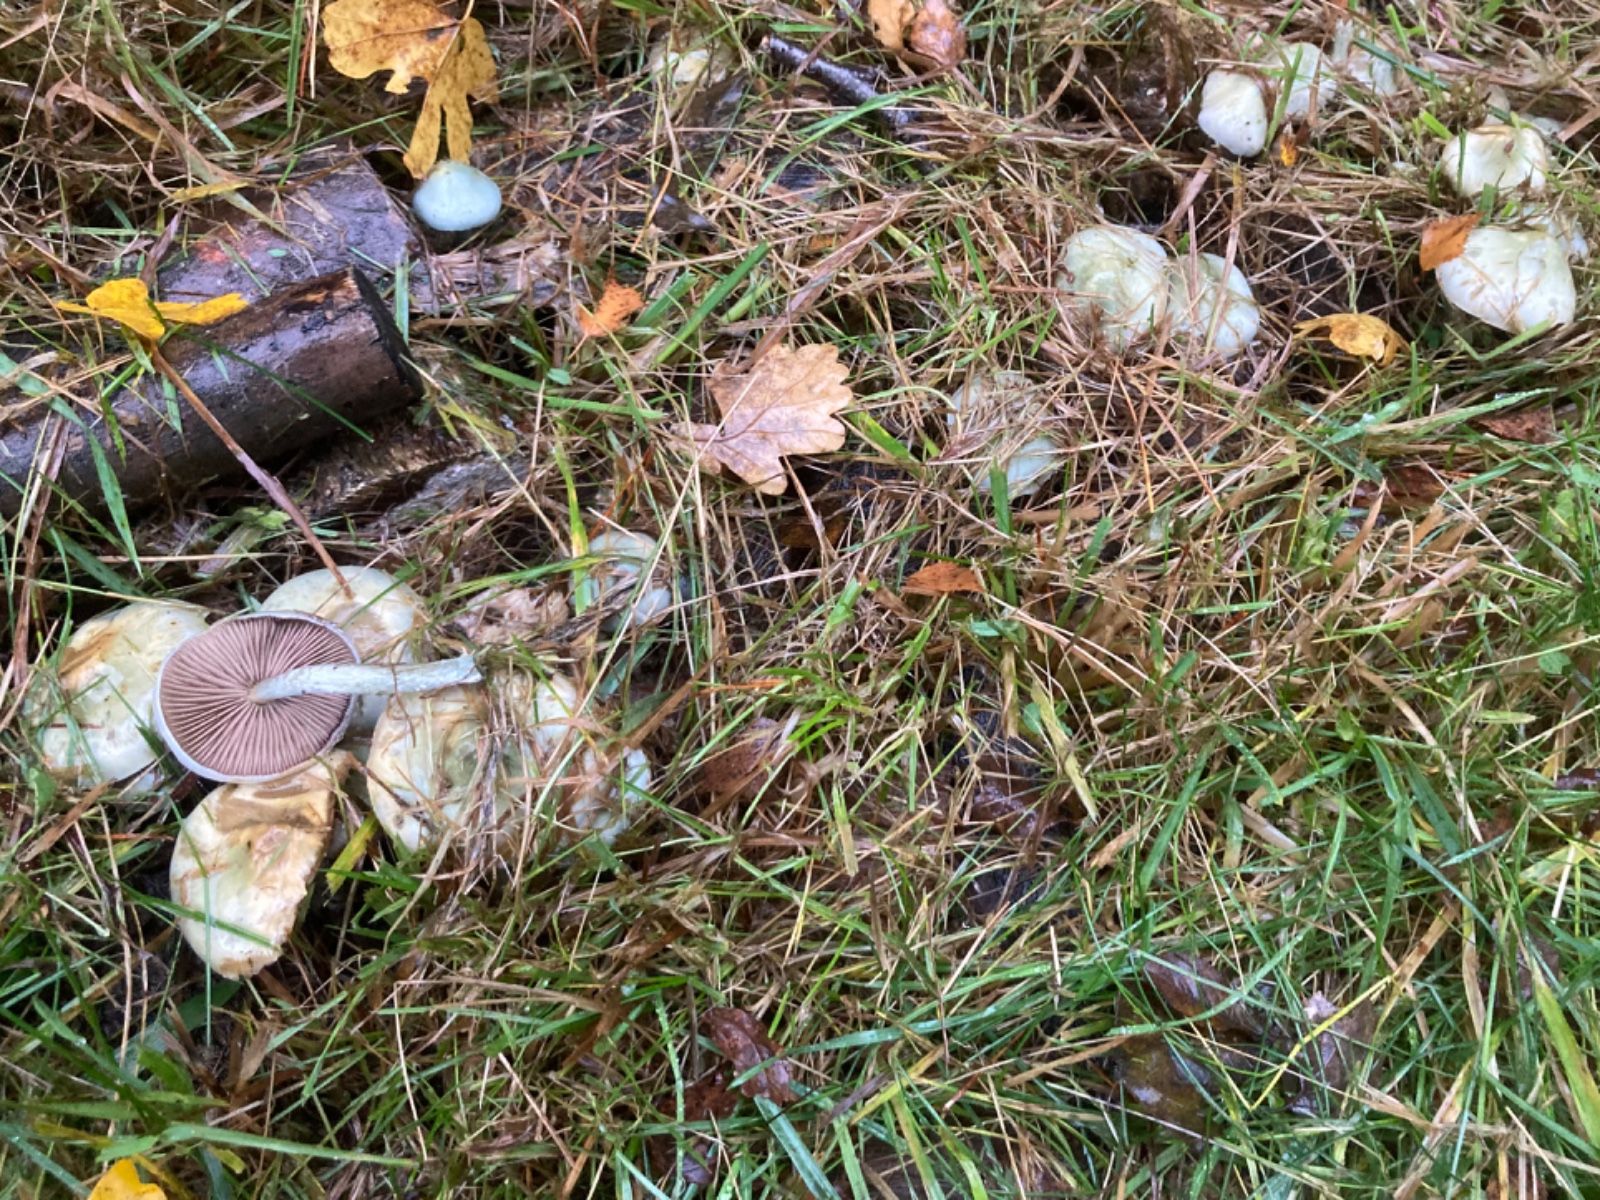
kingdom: Fungi
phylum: Basidiomycota
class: Agaricomycetes
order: Agaricales
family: Strophariaceae
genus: Stropharia
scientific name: Stropharia cyanea
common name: blågrøn bredblad
